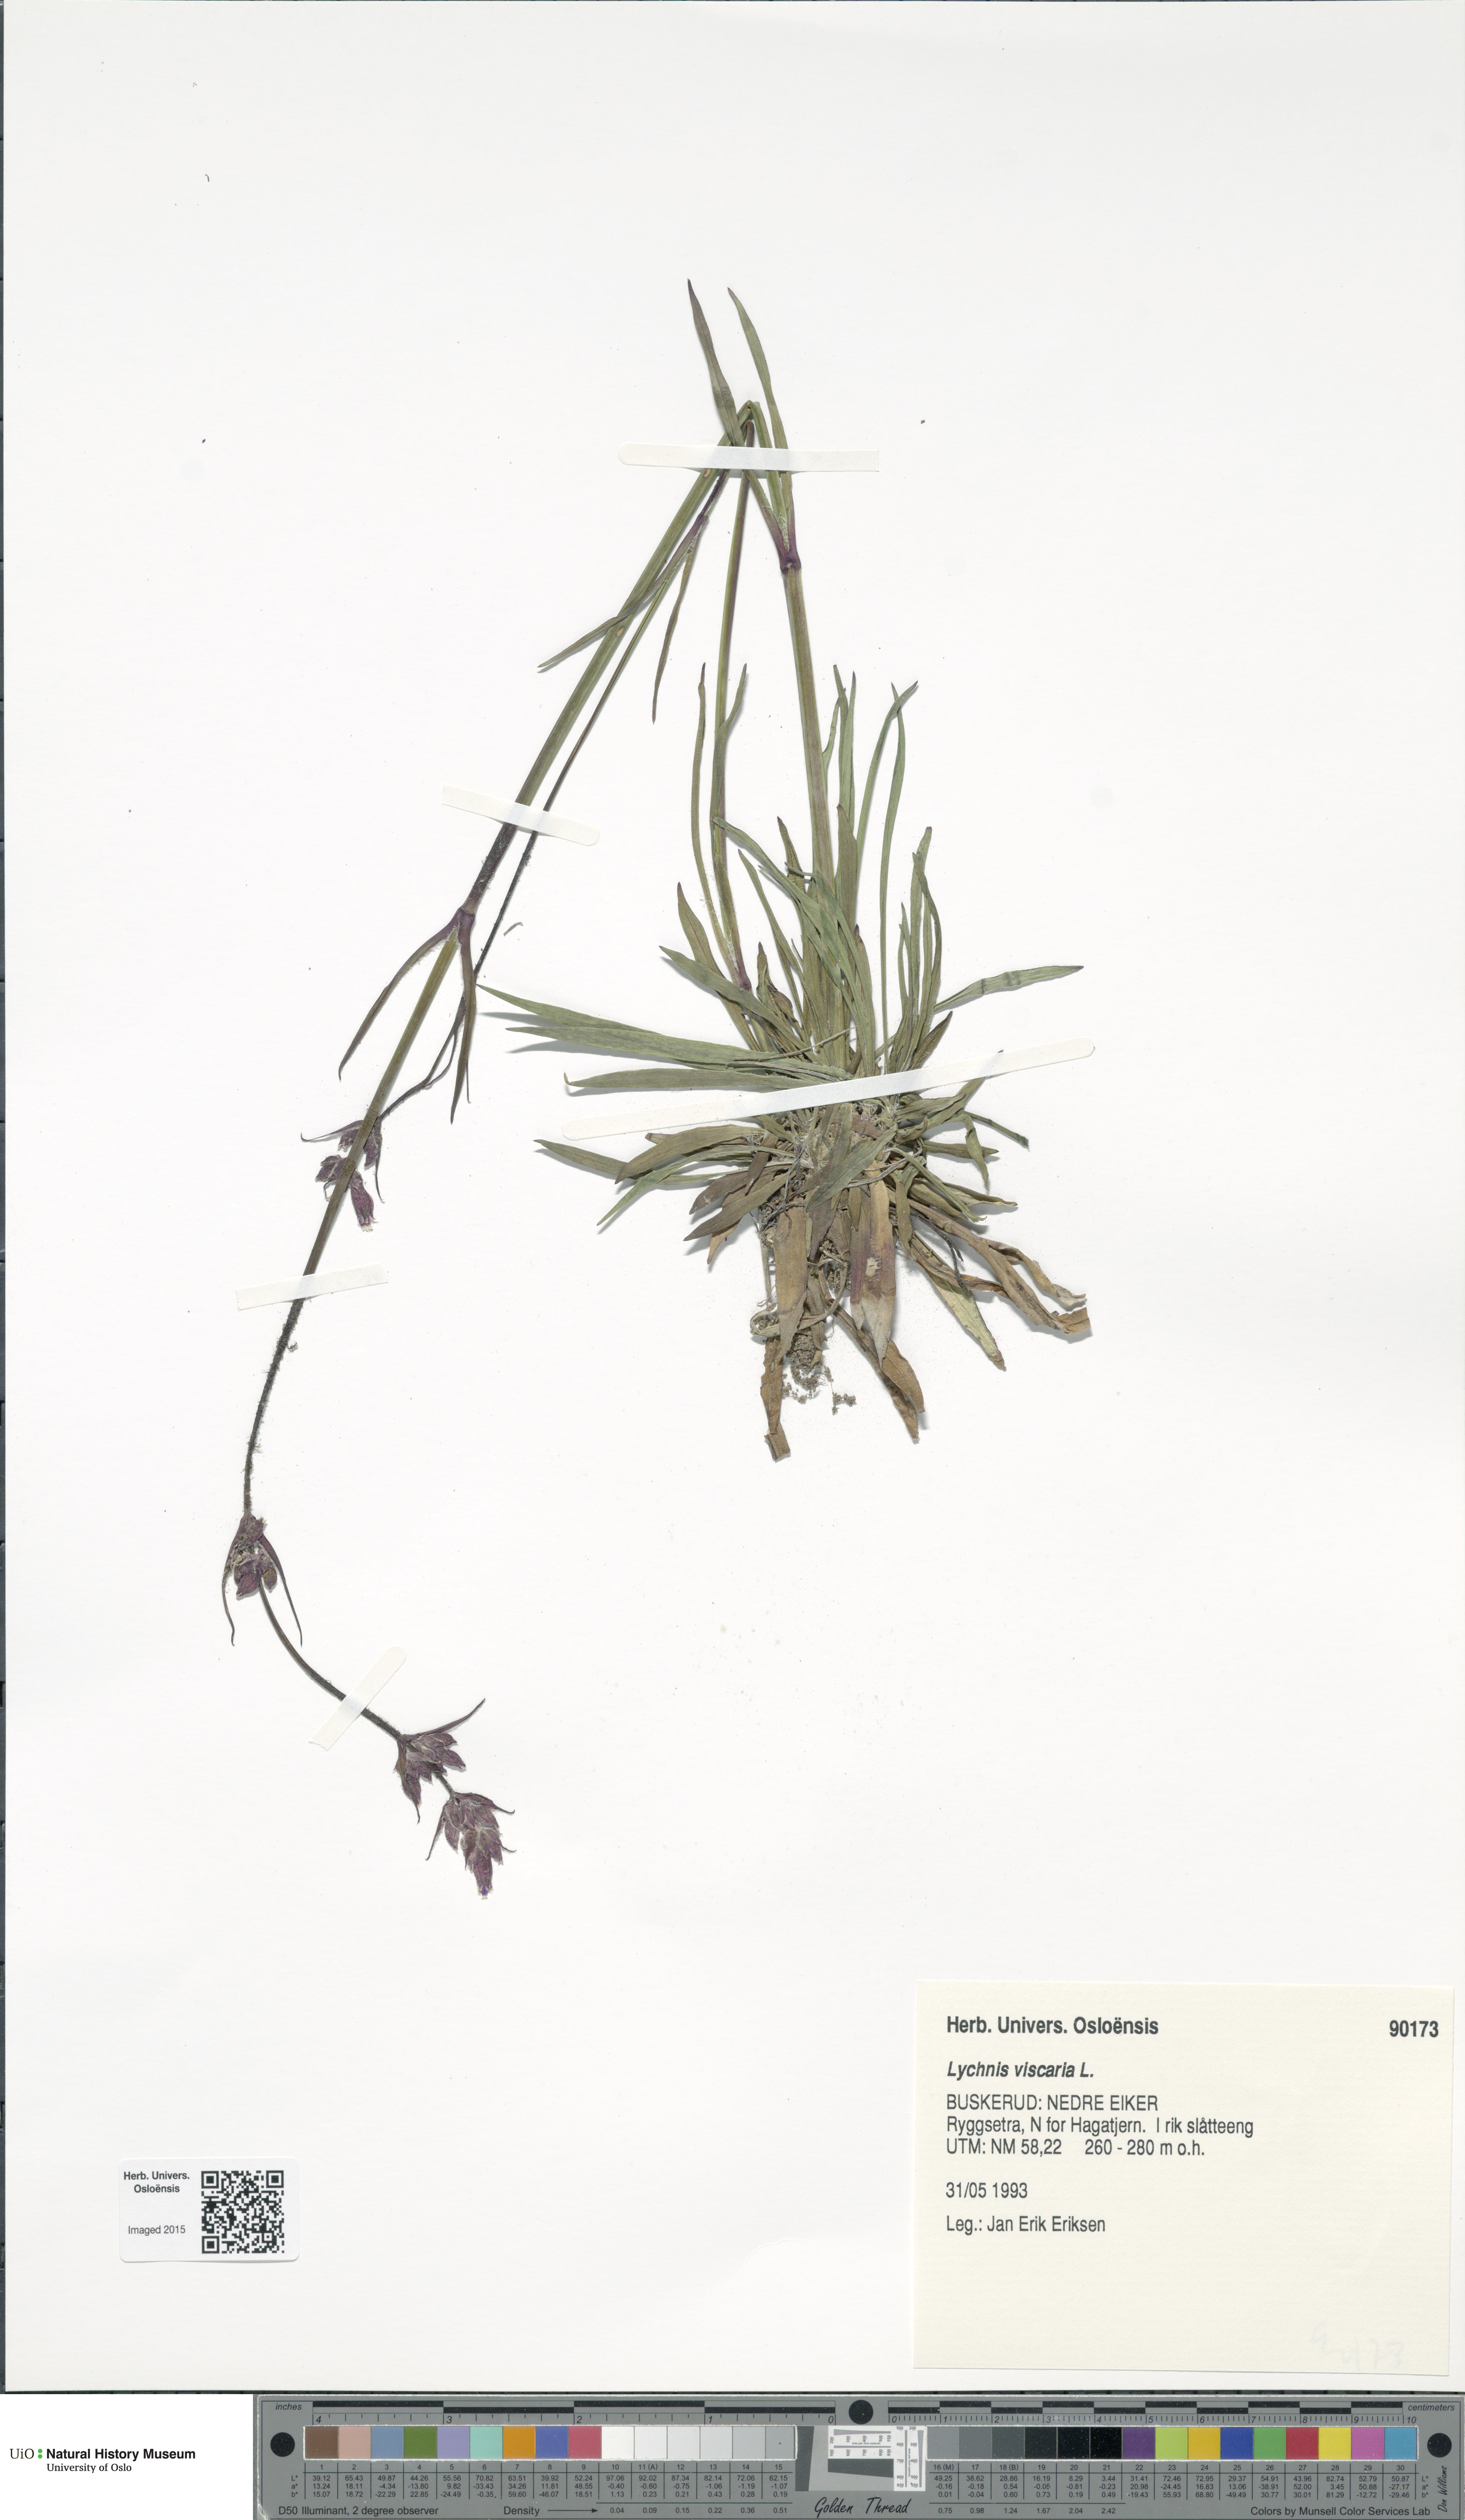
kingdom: Plantae
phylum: Tracheophyta
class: Magnoliopsida
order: Caryophyllales
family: Caryophyllaceae
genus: Viscaria
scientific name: Viscaria vulgaris
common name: Clammy campion
